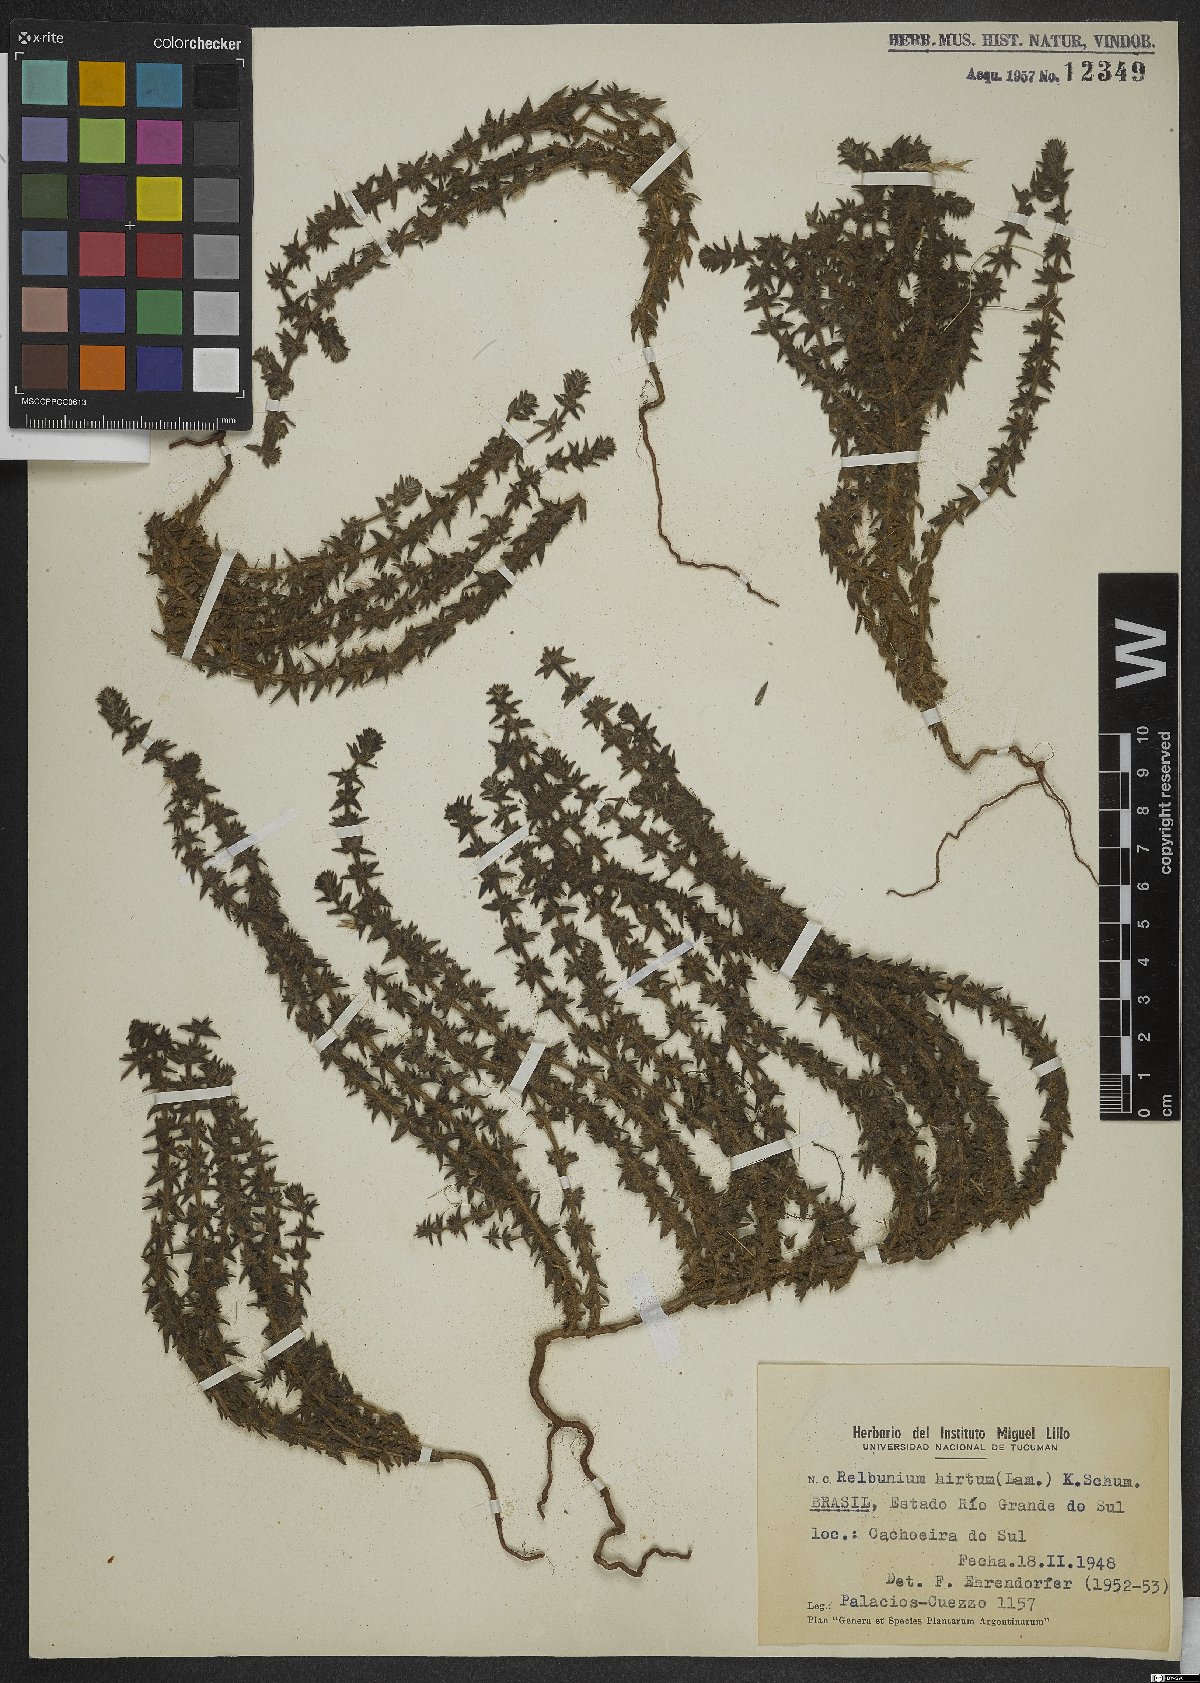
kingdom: Plantae
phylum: Tracheophyta
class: Magnoliopsida
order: Gentianales
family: Rubiaceae
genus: Galium
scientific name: Galium hirtum
